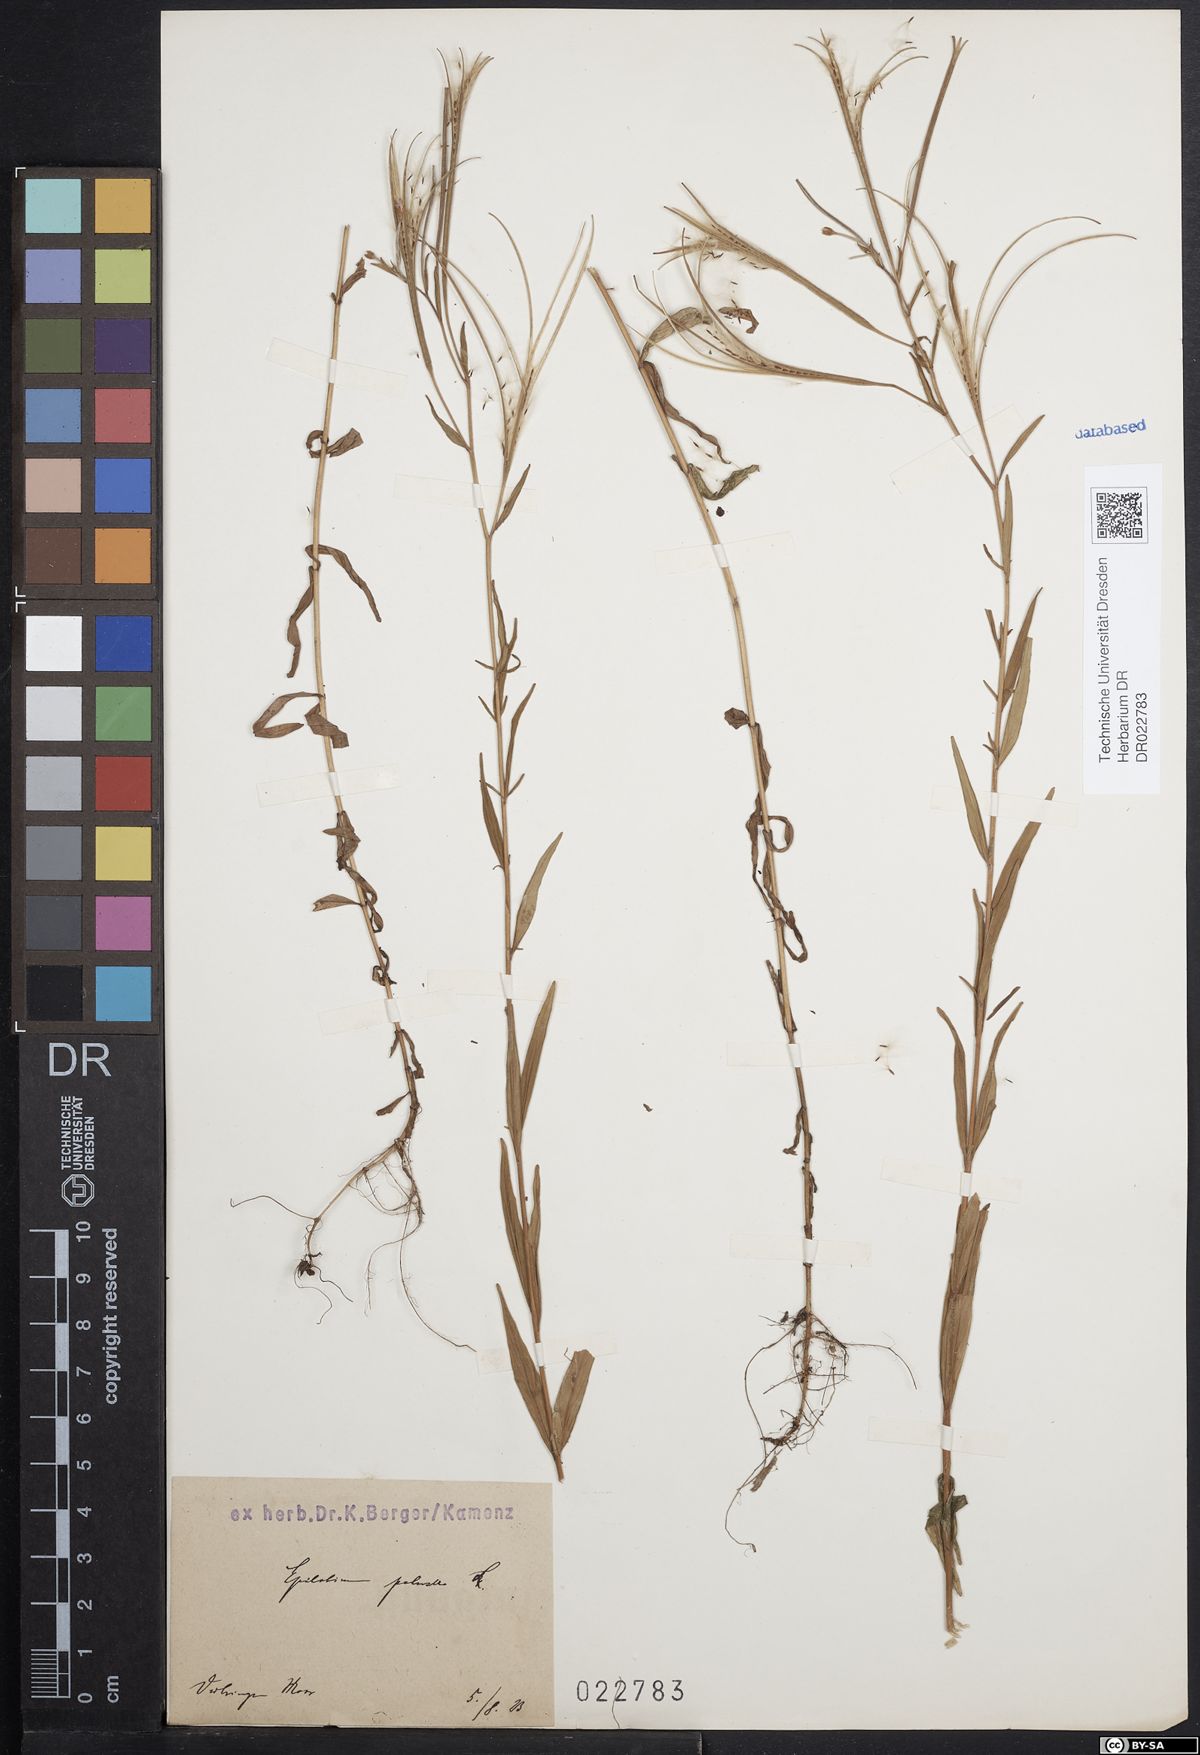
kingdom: Plantae
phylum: Tracheophyta
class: Magnoliopsida
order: Myrtales
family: Onagraceae
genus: Epilobium
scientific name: Epilobium palustre
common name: Marsh willowherb
